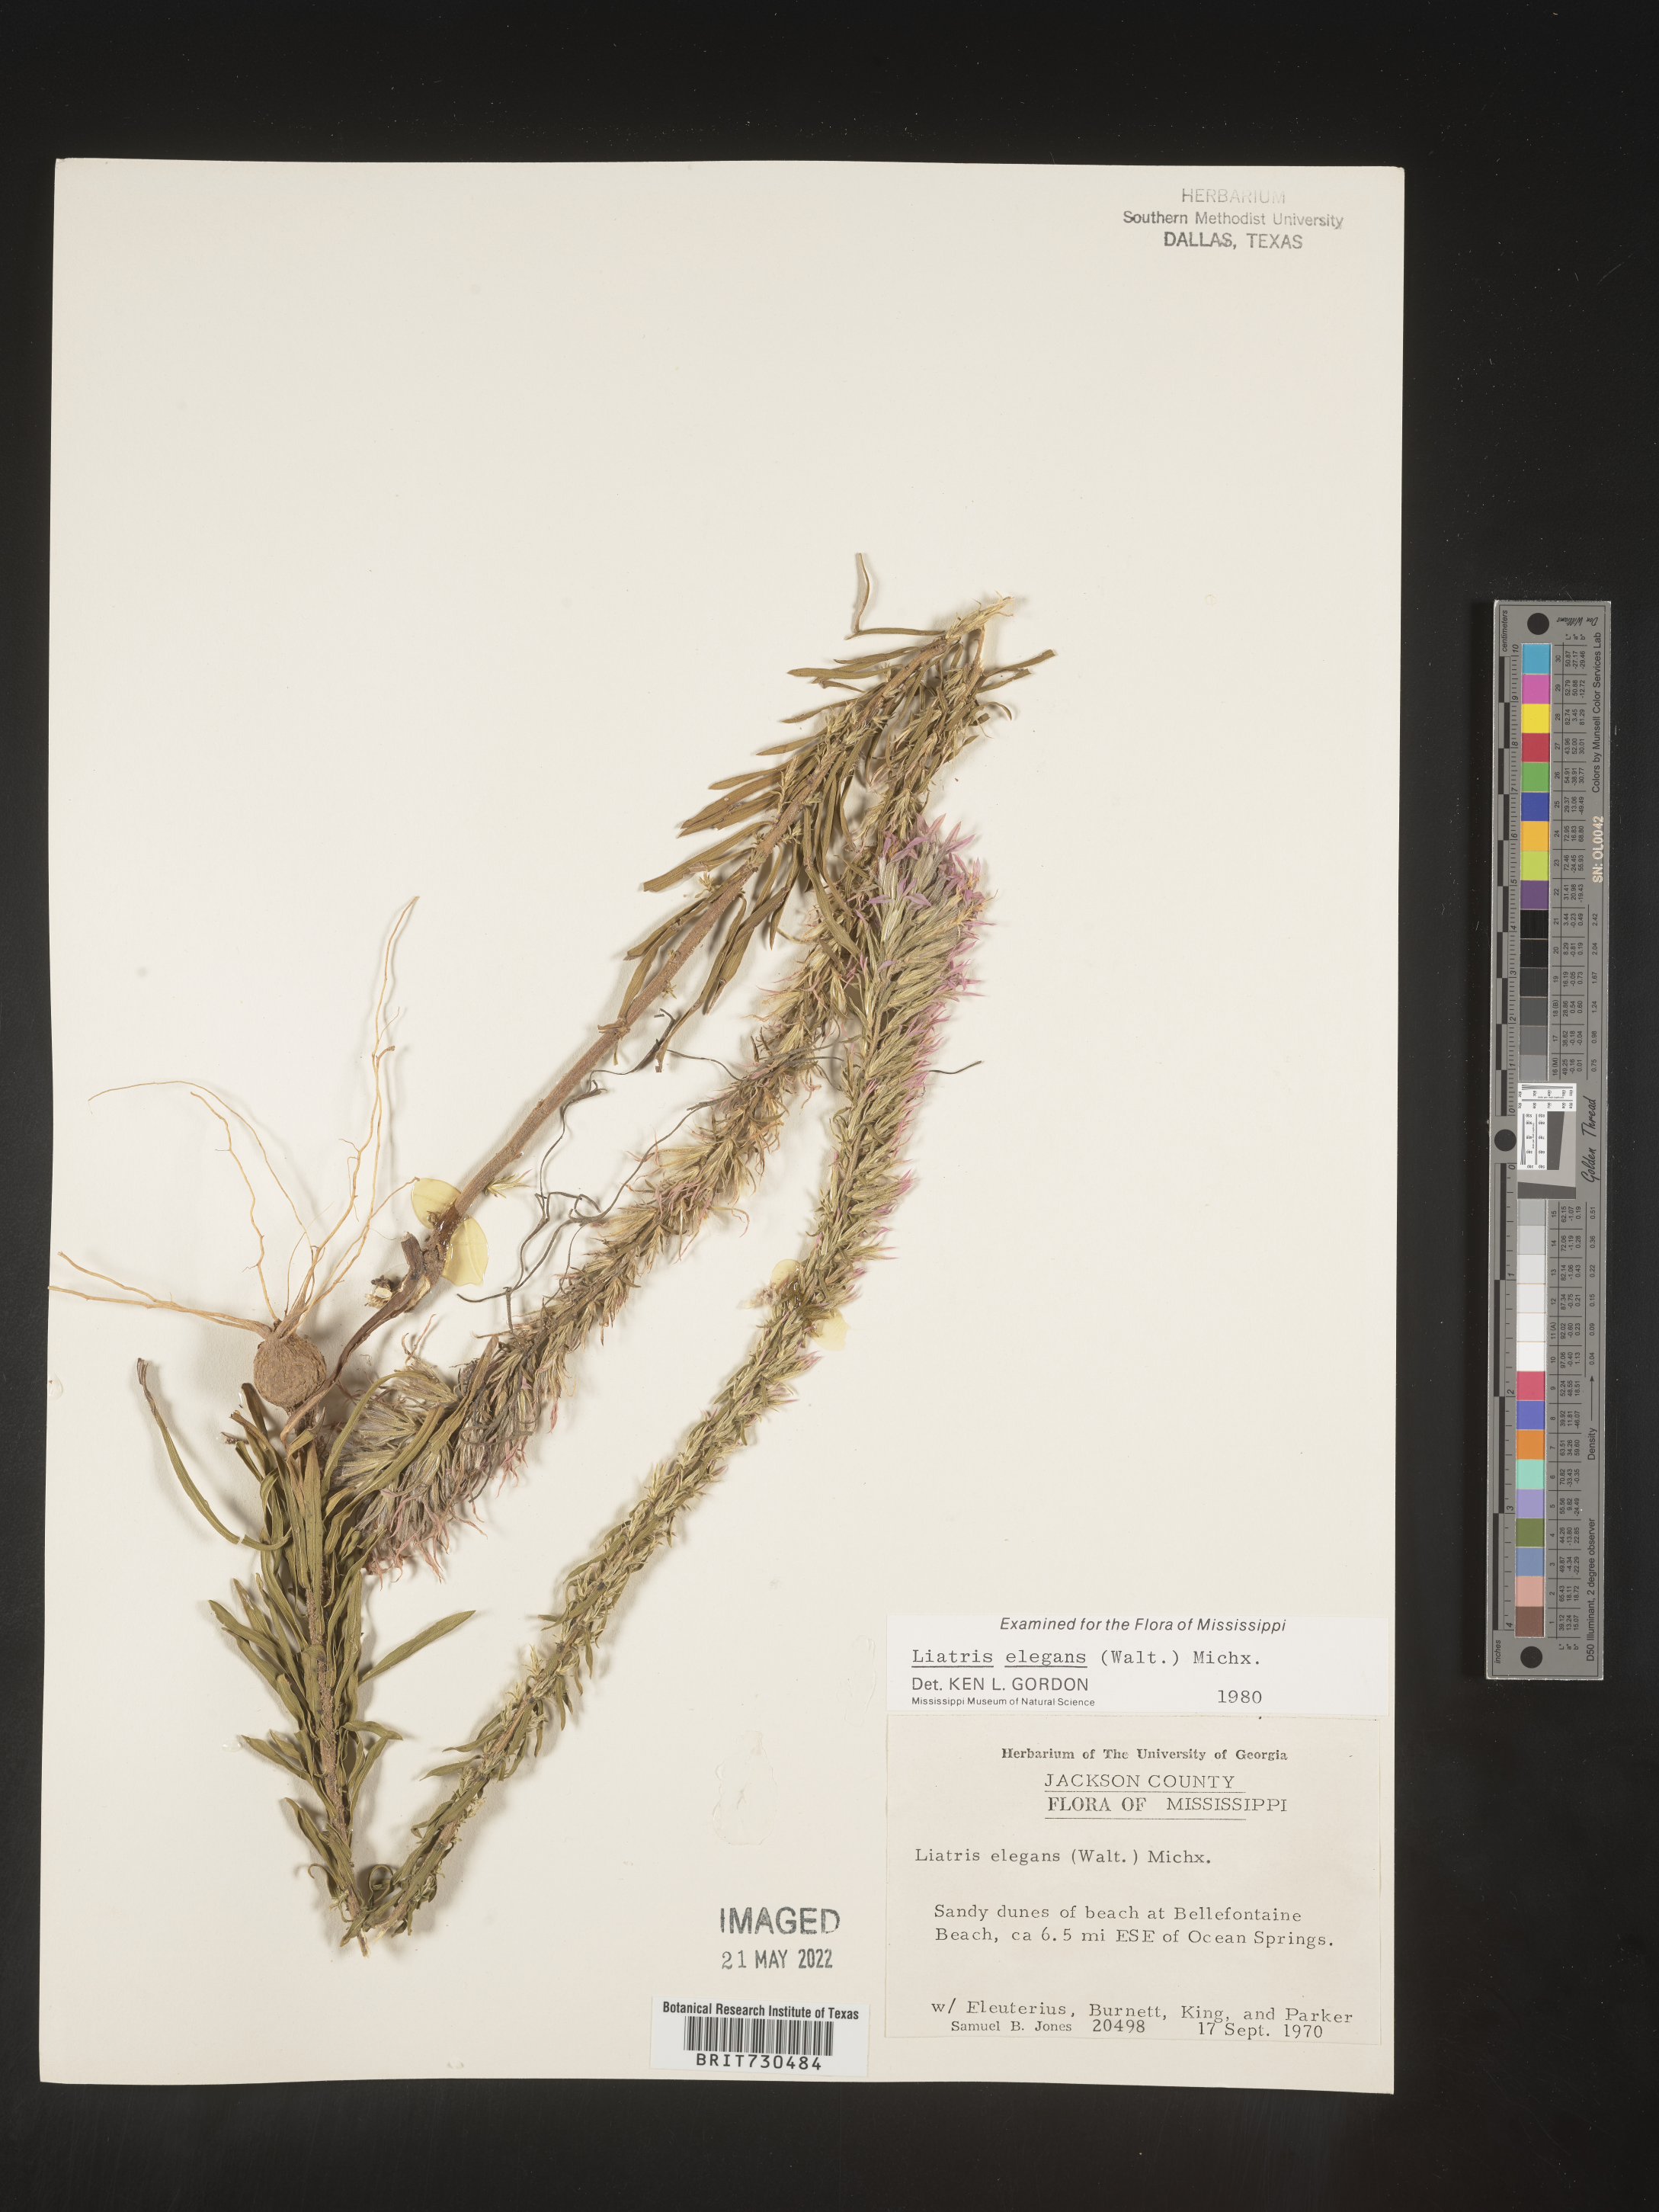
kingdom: Plantae
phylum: Tracheophyta
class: Magnoliopsida
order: Asterales
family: Asteraceae
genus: Liatris
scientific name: Liatris elegans
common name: Pinkscale gayfeather
